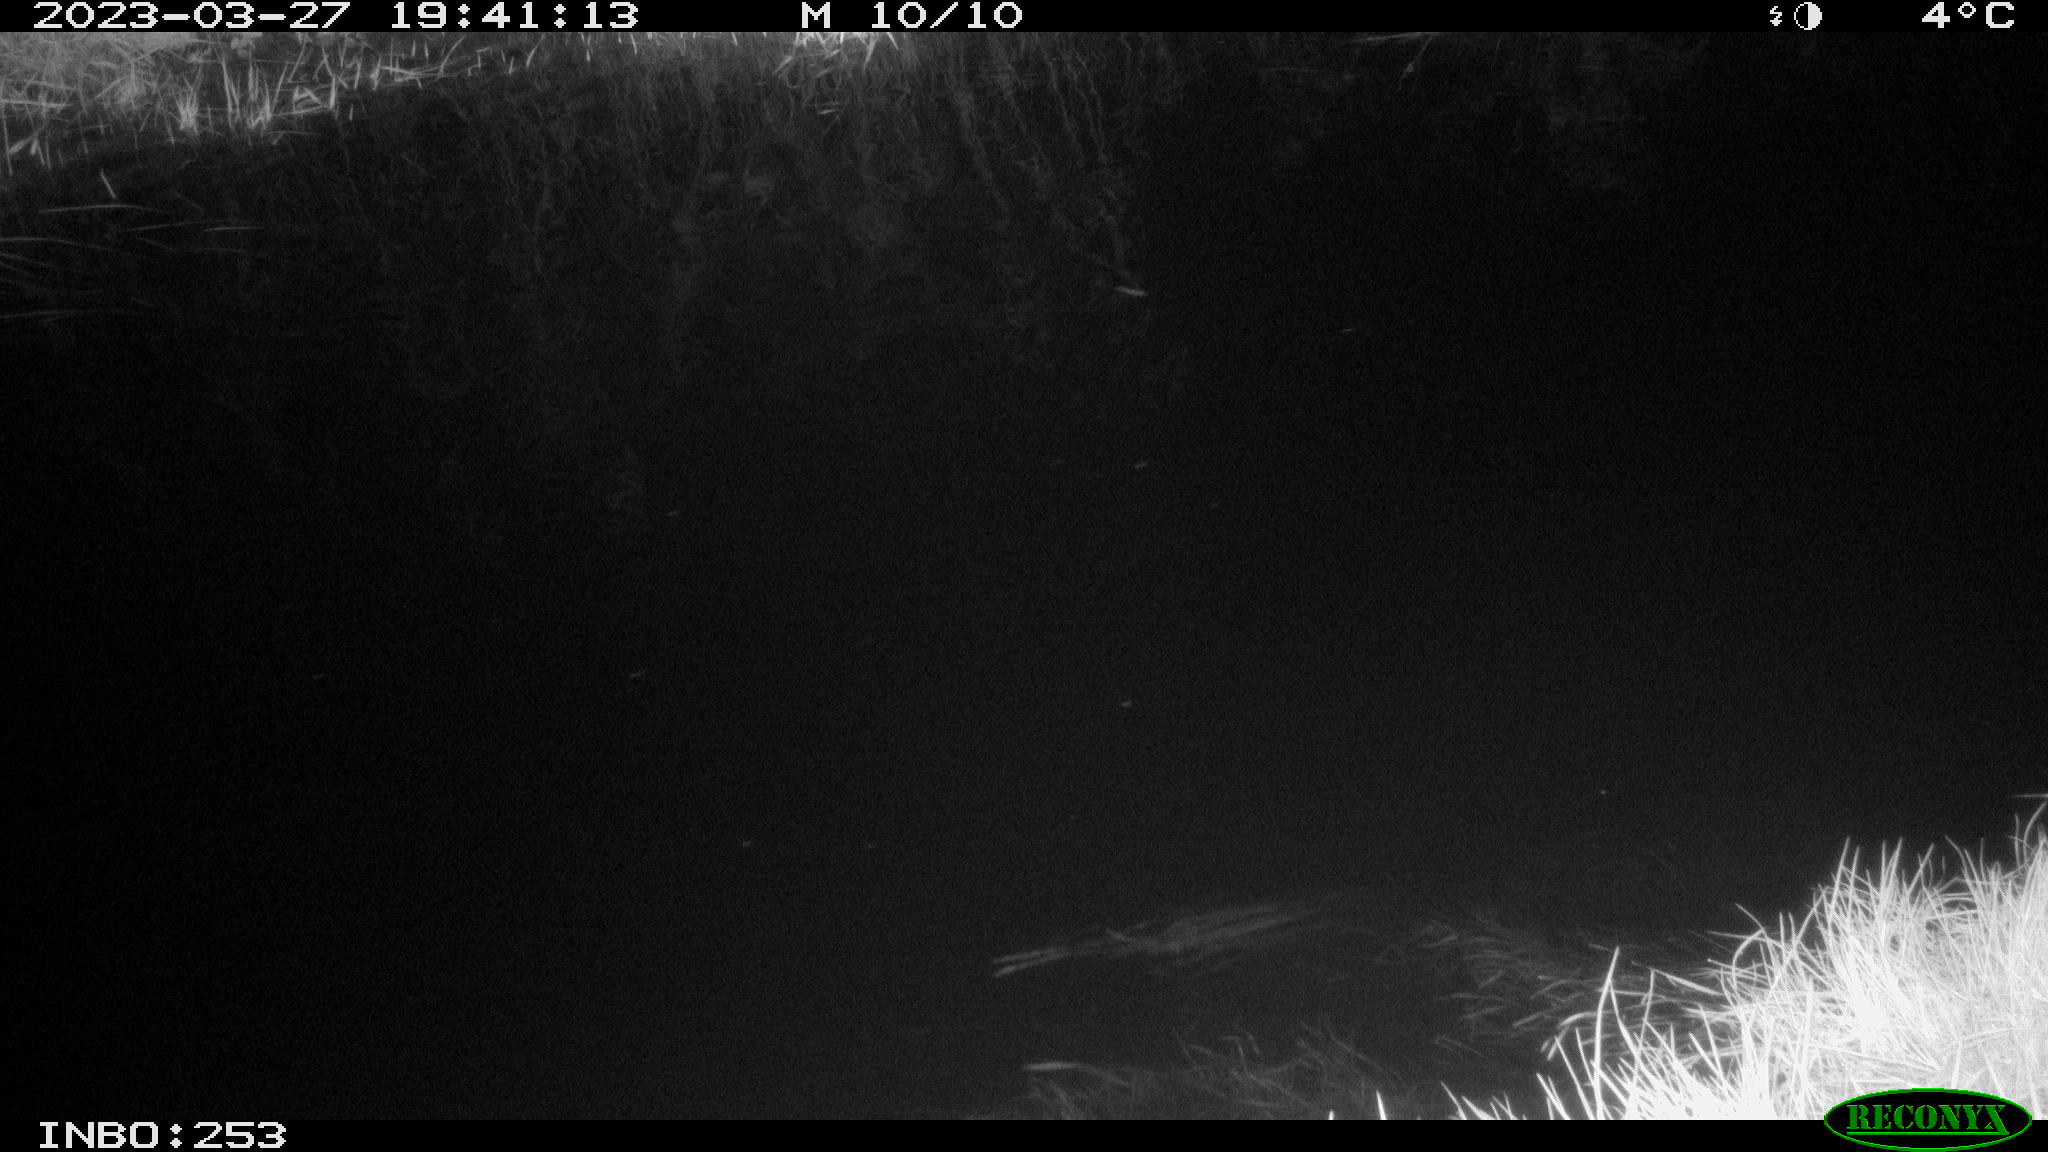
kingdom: Animalia
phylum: Chordata
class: Aves
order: Anseriformes
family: Anatidae
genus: Anas
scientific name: Anas
